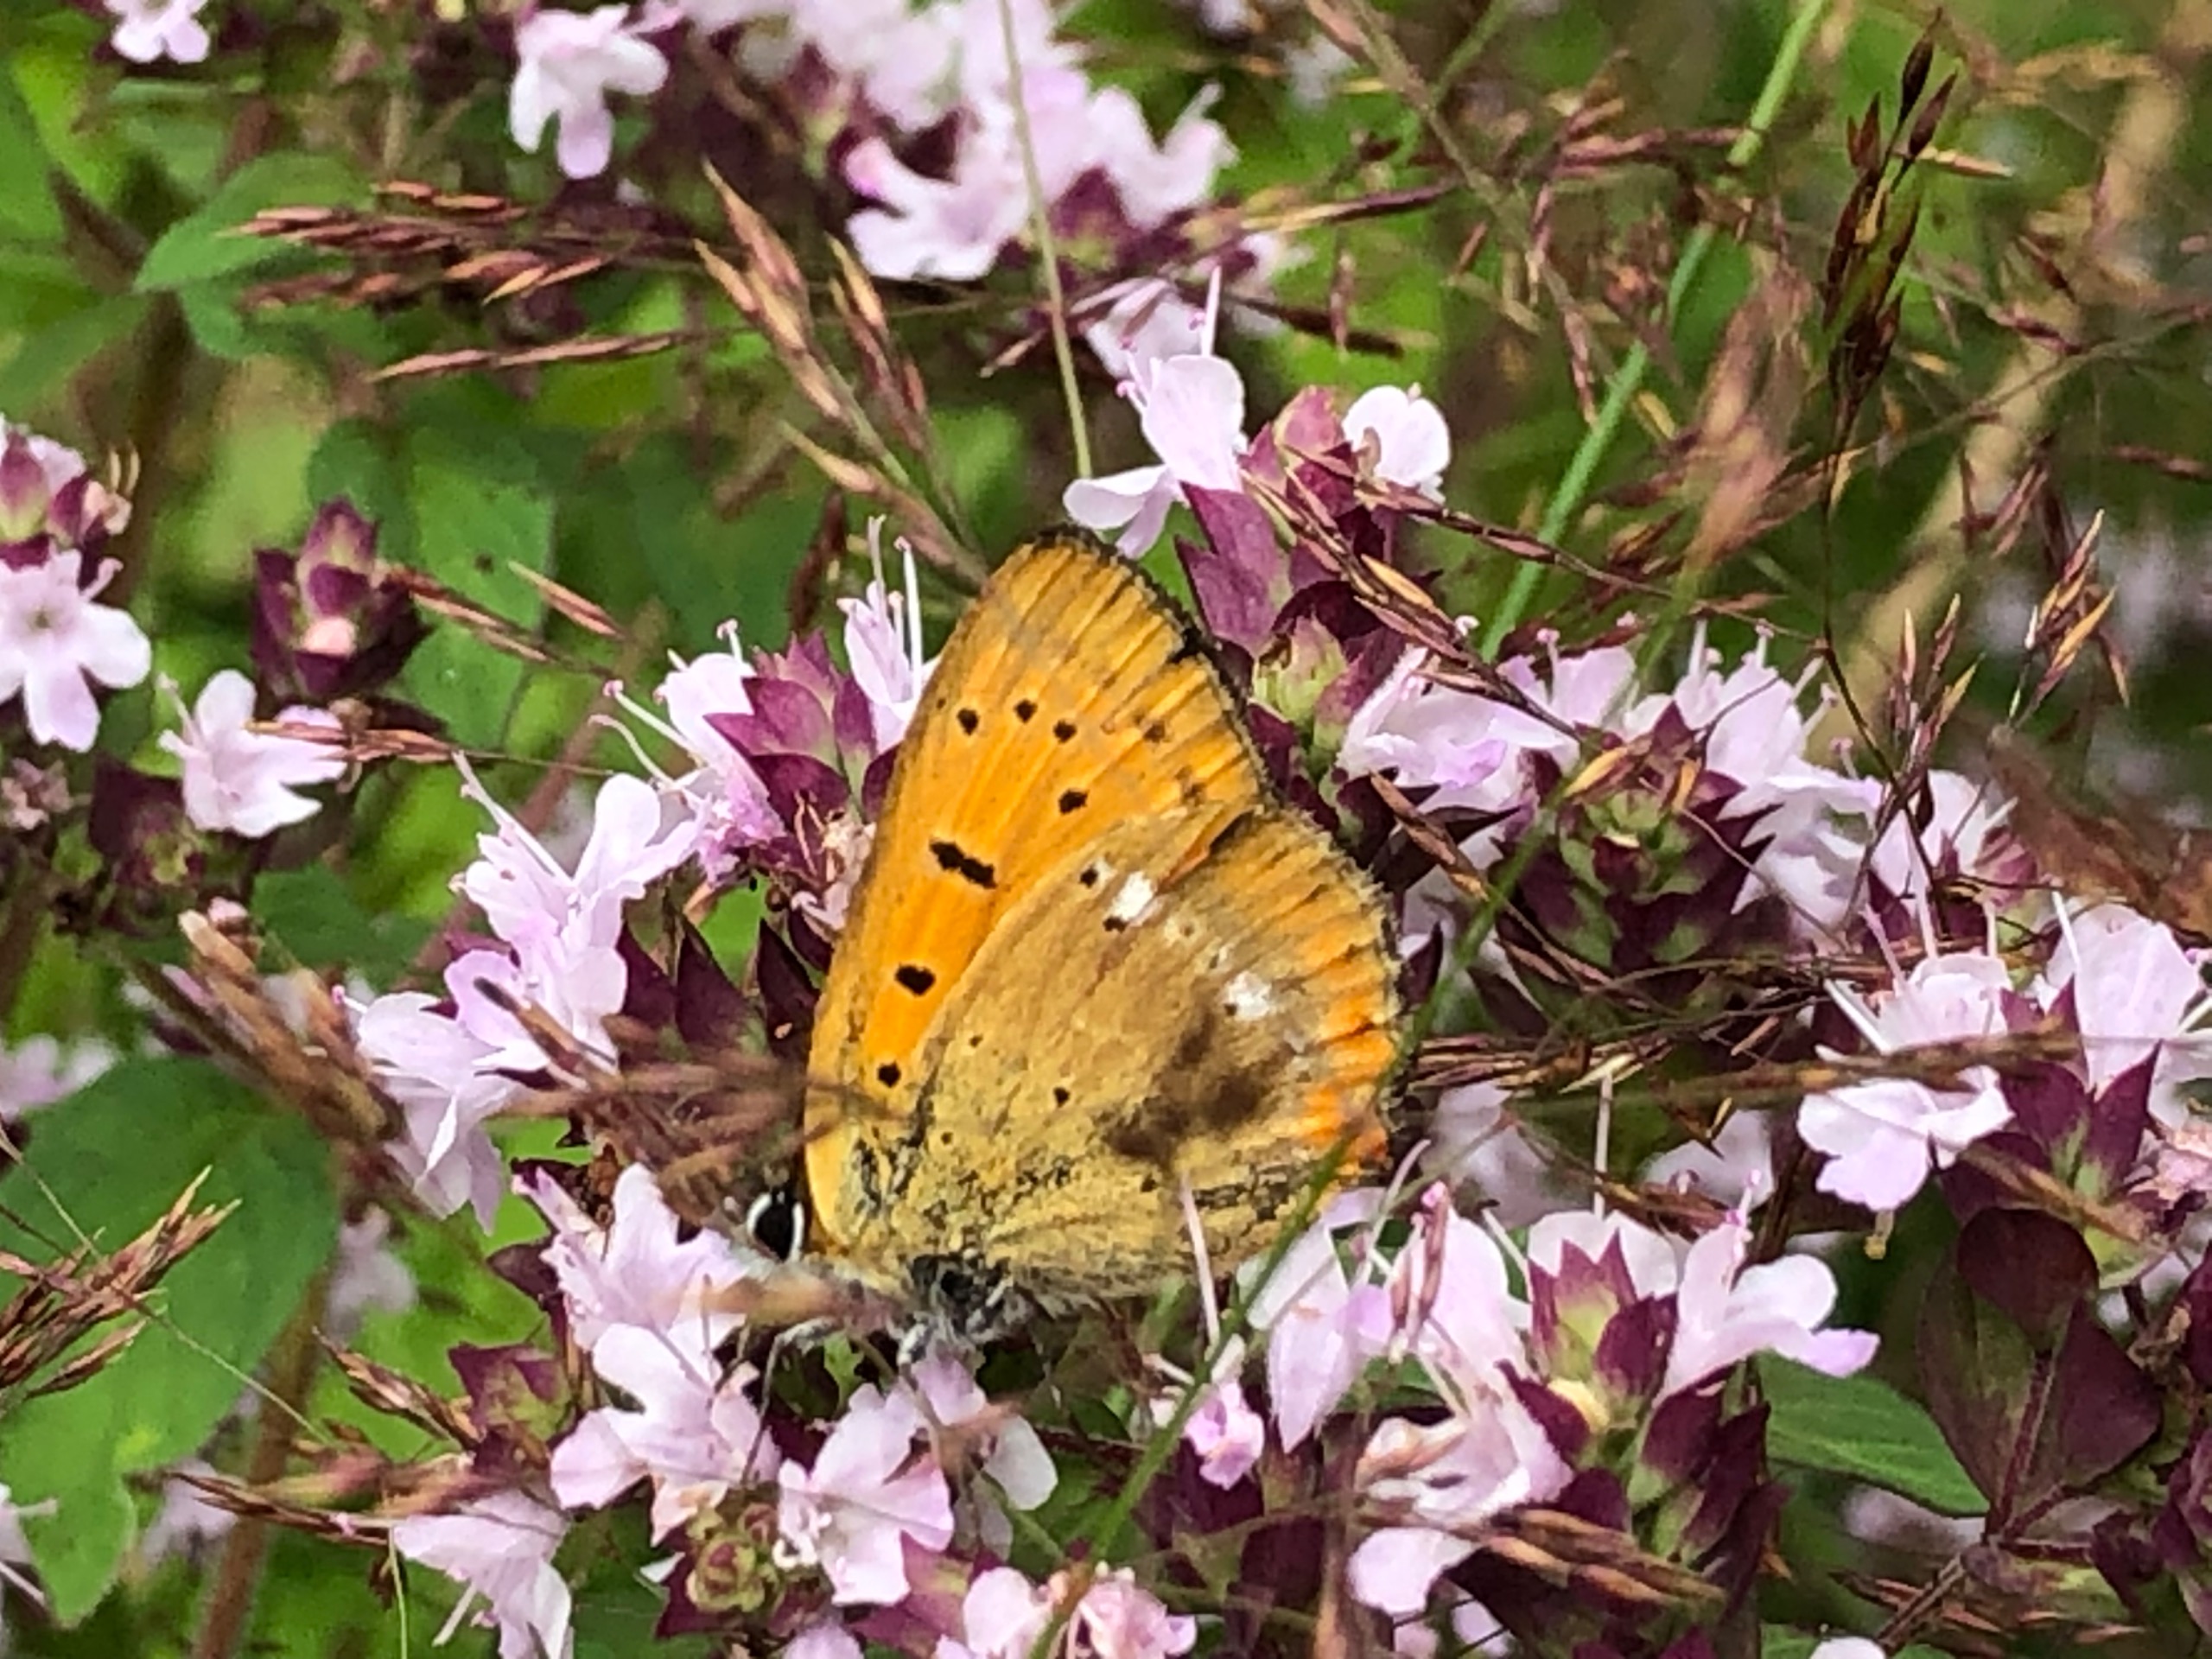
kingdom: Animalia
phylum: Arthropoda
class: Insecta
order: Lepidoptera
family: Lycaenidae
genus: Lycaena
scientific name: Lycaena virgaureae
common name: Dukatsommerfugl
